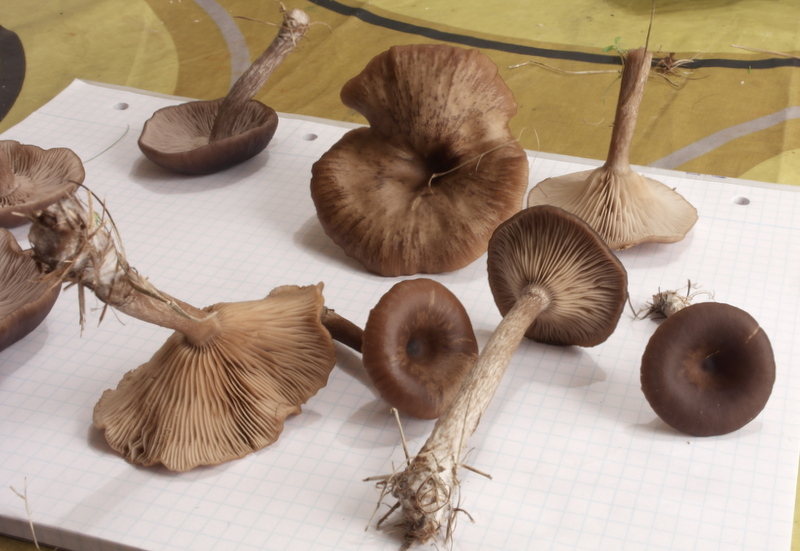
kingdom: Fungi
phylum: Basidiomycota
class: Agaricomycetes
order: Agaricales
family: Pseudoclitocybaceae
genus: Pseudoclitocybe
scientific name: Pseudoclitocybe cyathiformis
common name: almindelig bægertragthat
